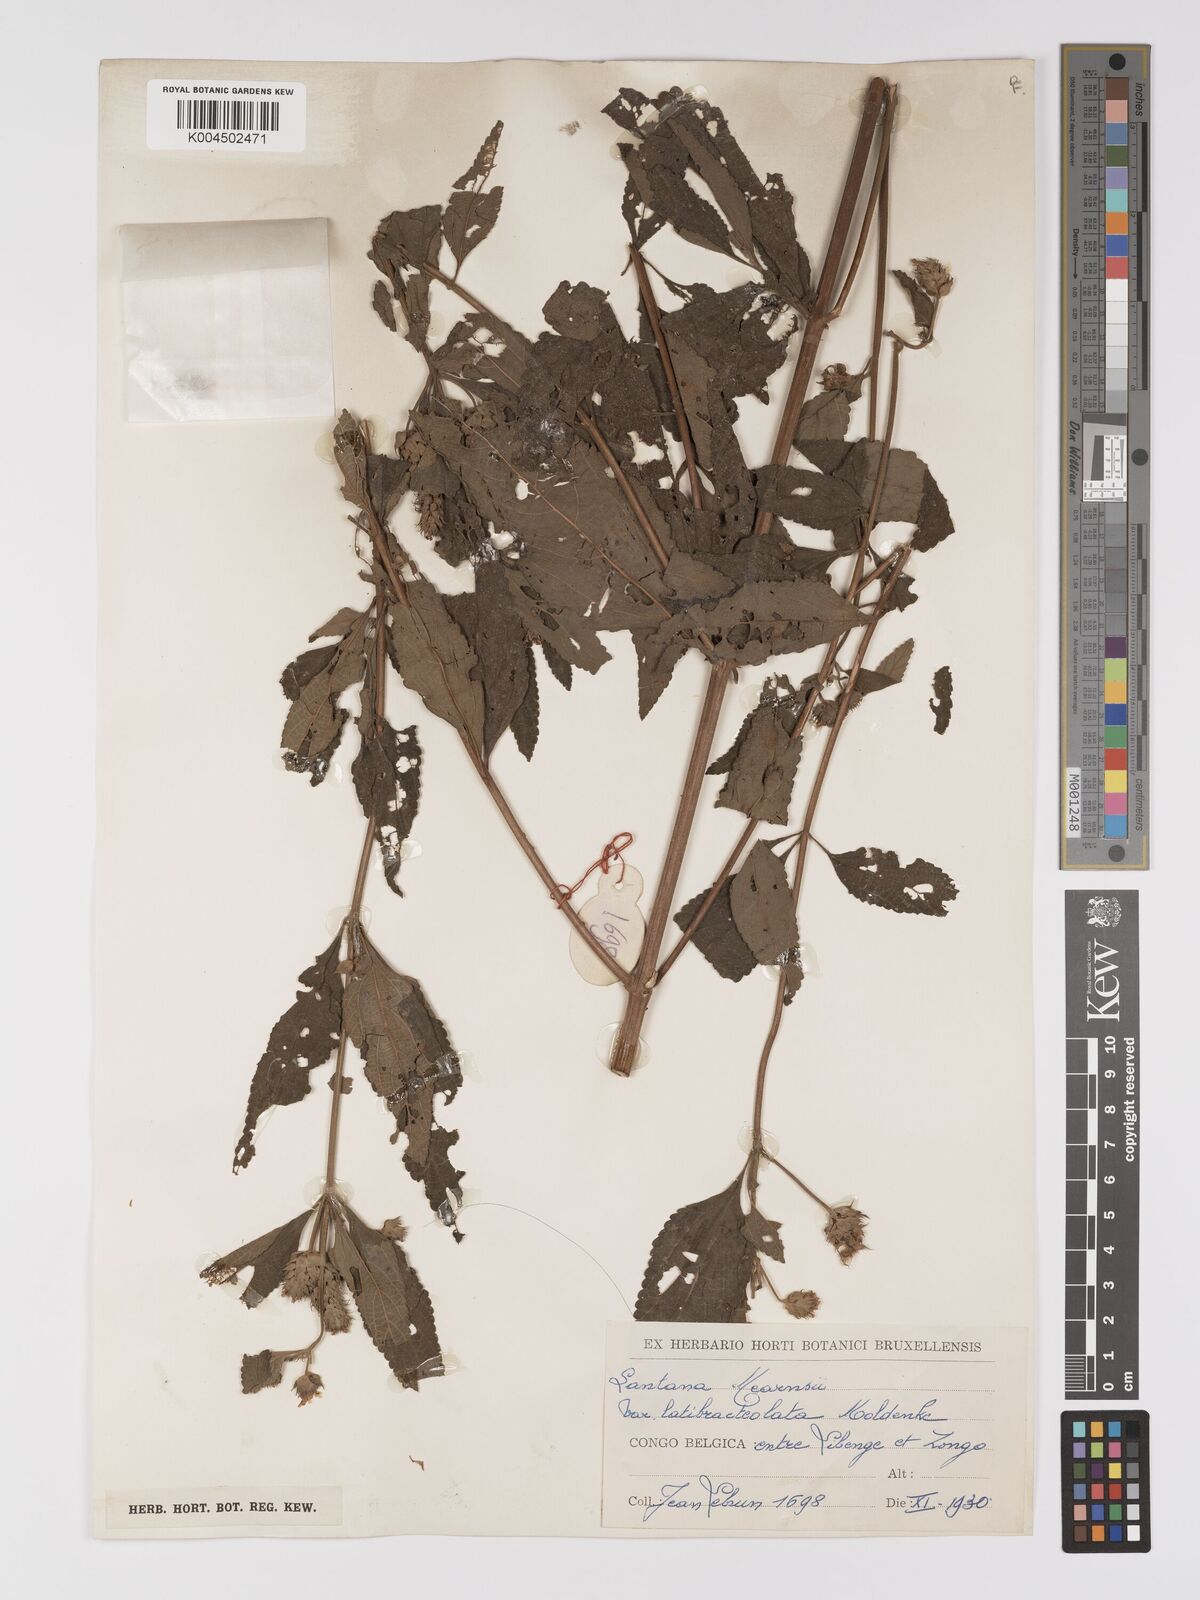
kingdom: Plantae
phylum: Tracheophyta
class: Magnoliopsida
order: Lamiales
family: Verbenaceae
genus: Lantana
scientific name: Lantana ukambensis
